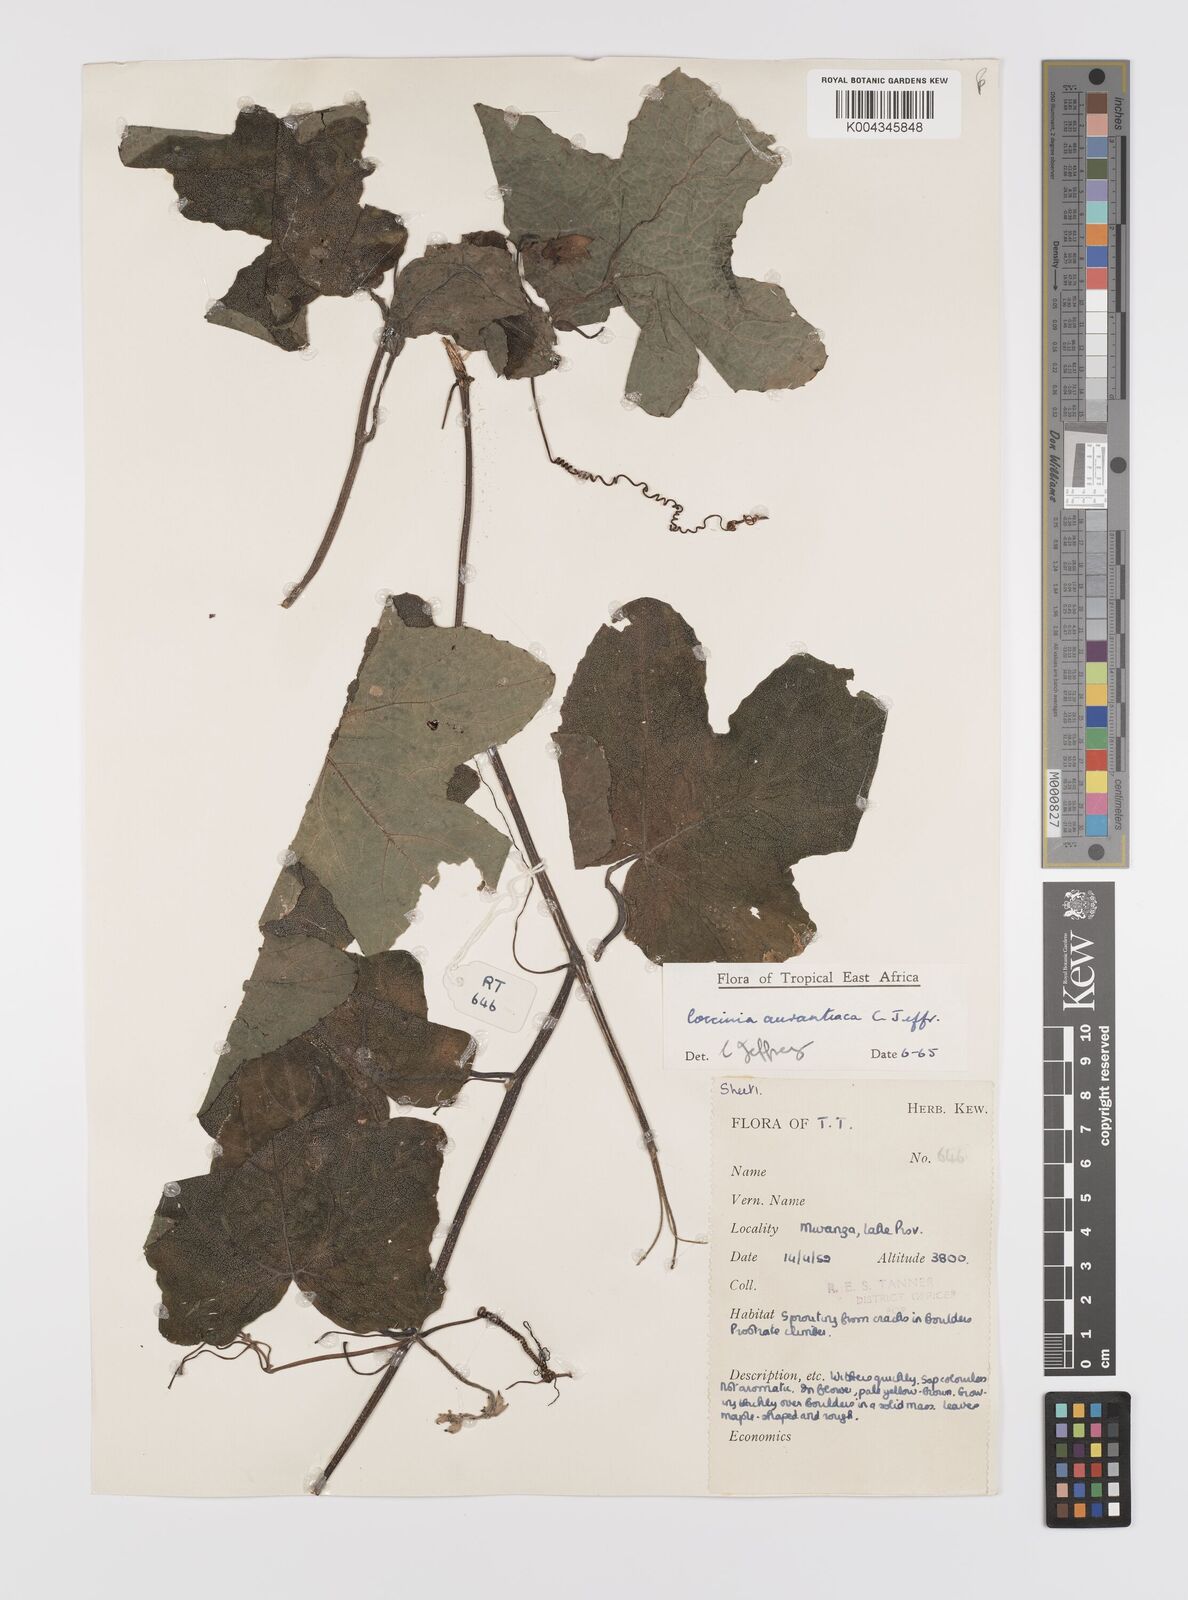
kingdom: Plantae
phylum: Tracheophyta
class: Magnoliopsida
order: Cucurbitales
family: Cucurbitaceae
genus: Coccinia
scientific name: Coccinia adoensis
